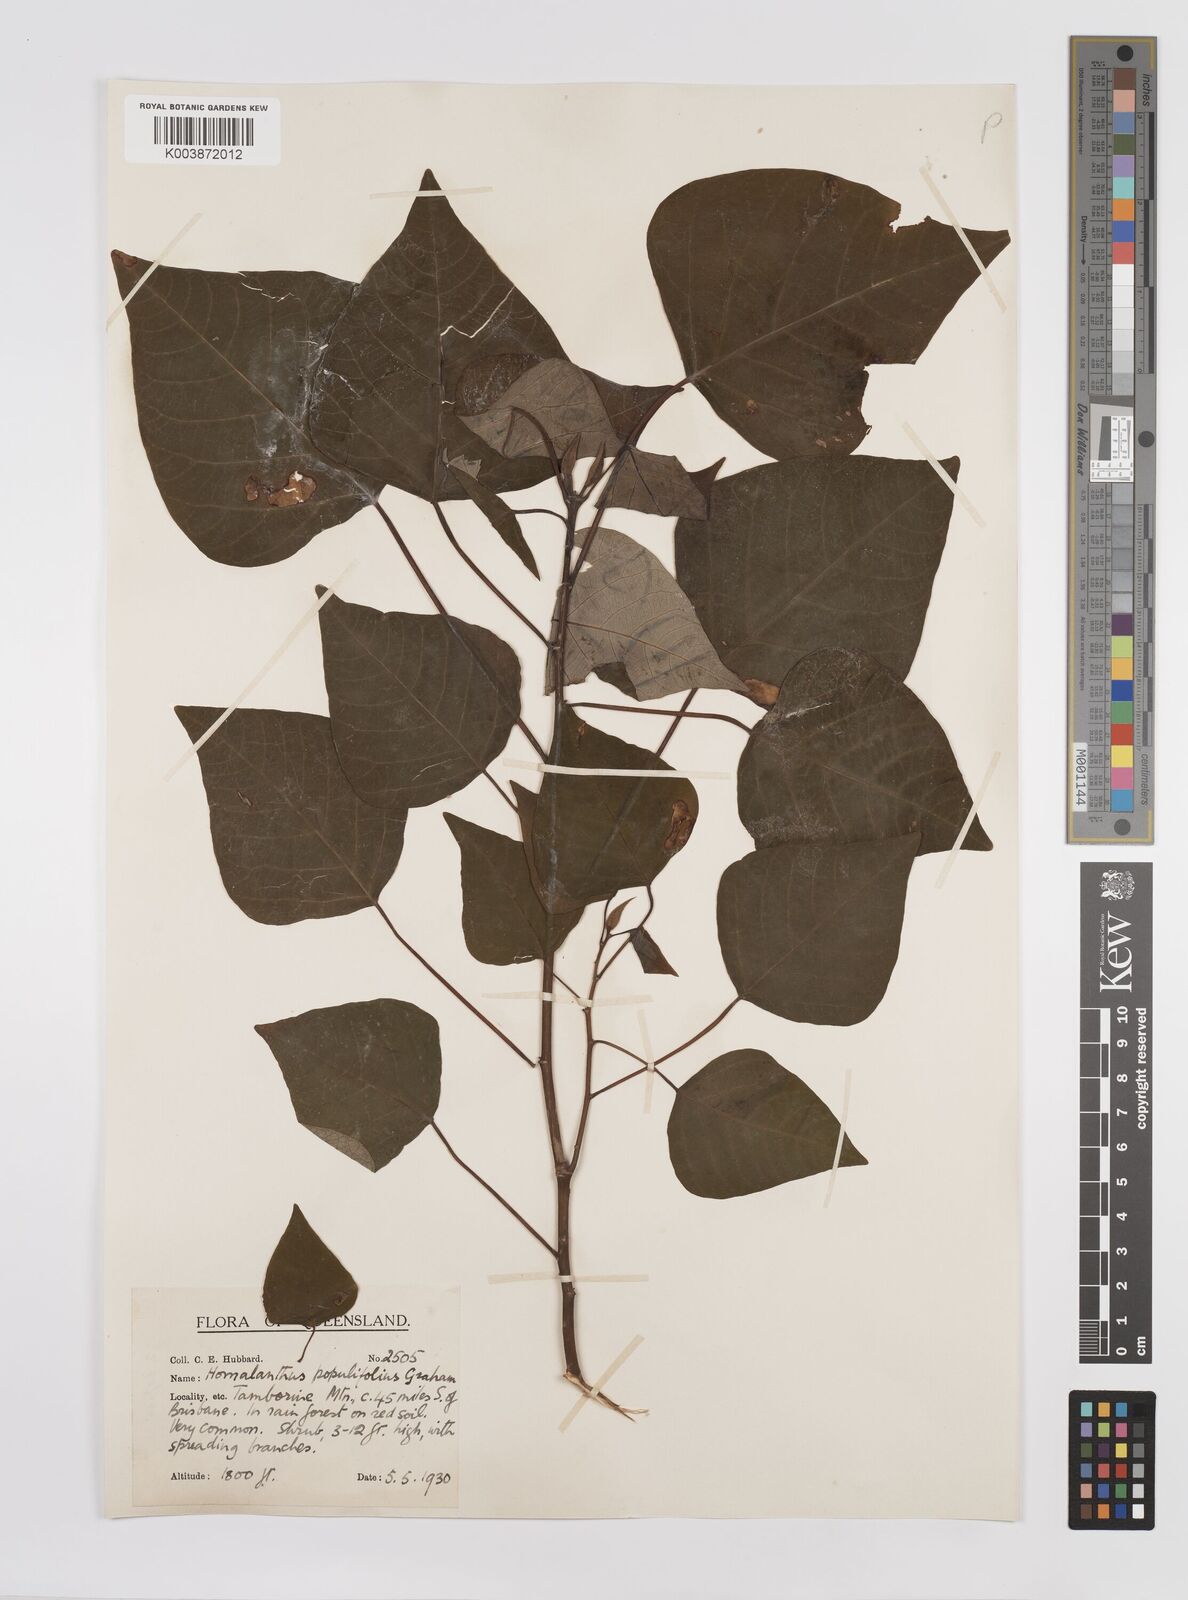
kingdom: Plantae
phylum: Tracheophyta
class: Magnoliopsida
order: Malpighiales
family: Euphorbiaceae
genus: Homalanthus
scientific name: Homalanthus populifolius
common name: Queensland poplar
